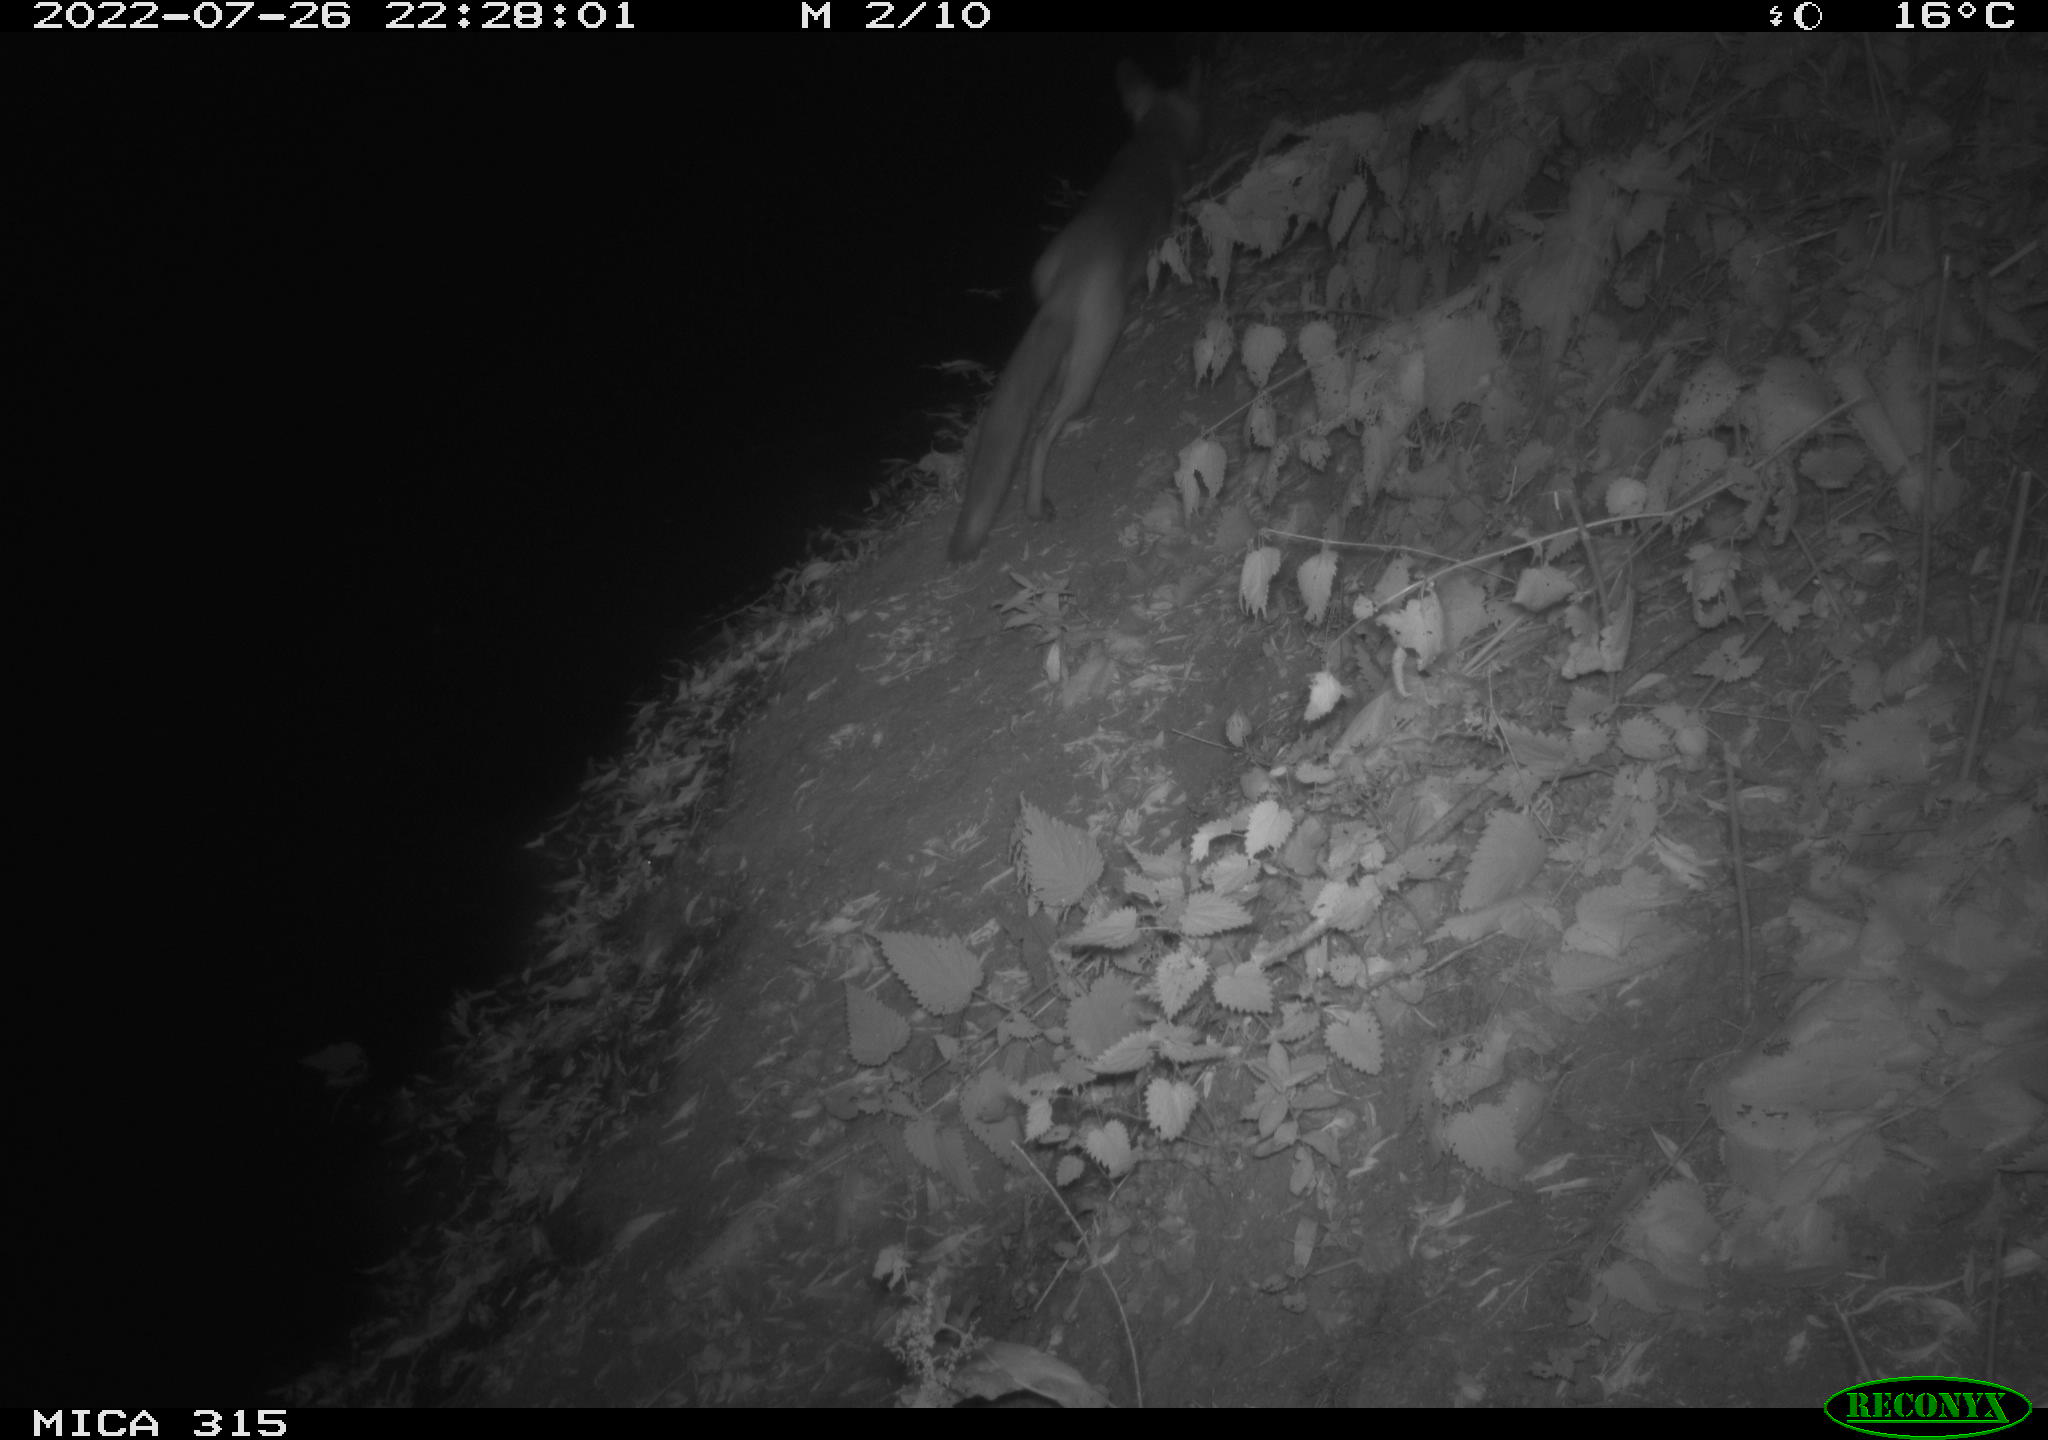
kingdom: Animalia
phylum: Chordata
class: Mammalia
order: Carnivora
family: Canidae
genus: Vulpes
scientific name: Vulpes vulpes
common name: Red fox
